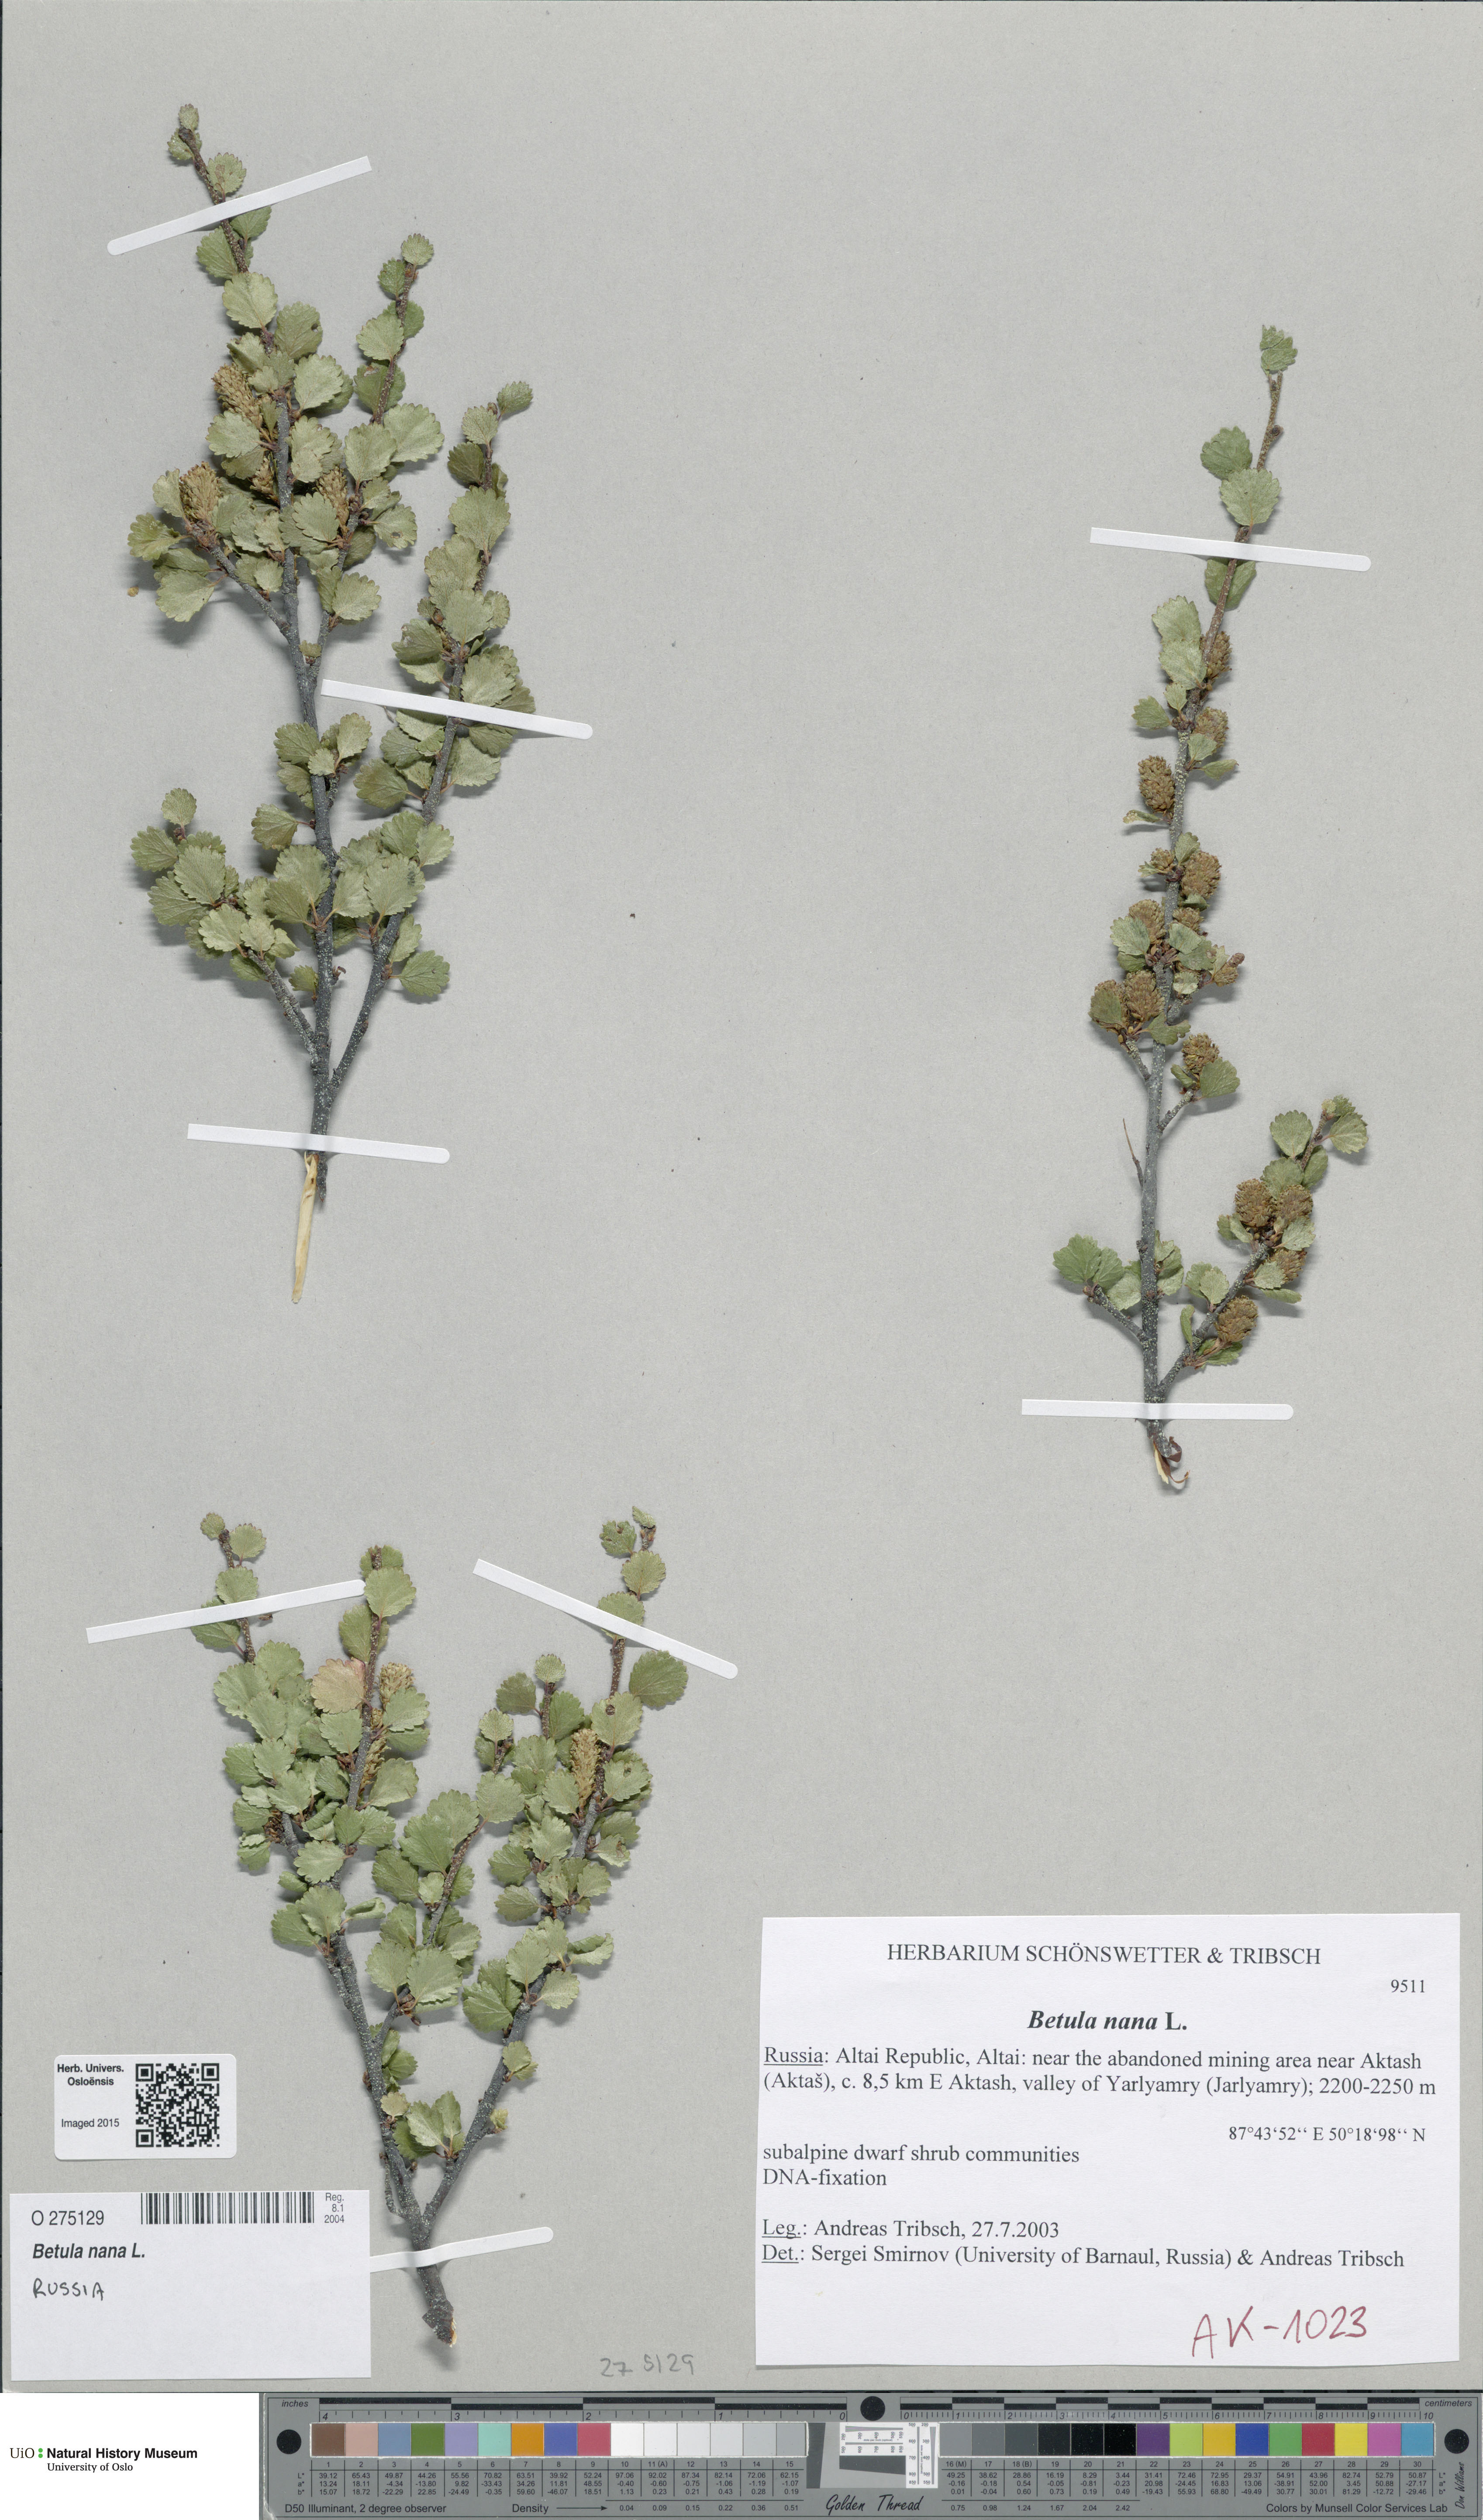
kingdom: Plantae
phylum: Tracheophyta
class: Magnoliopsida
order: Fagales
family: Betulaceae
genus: Betula
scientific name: Betula nana
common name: Arctic dwarf birch
